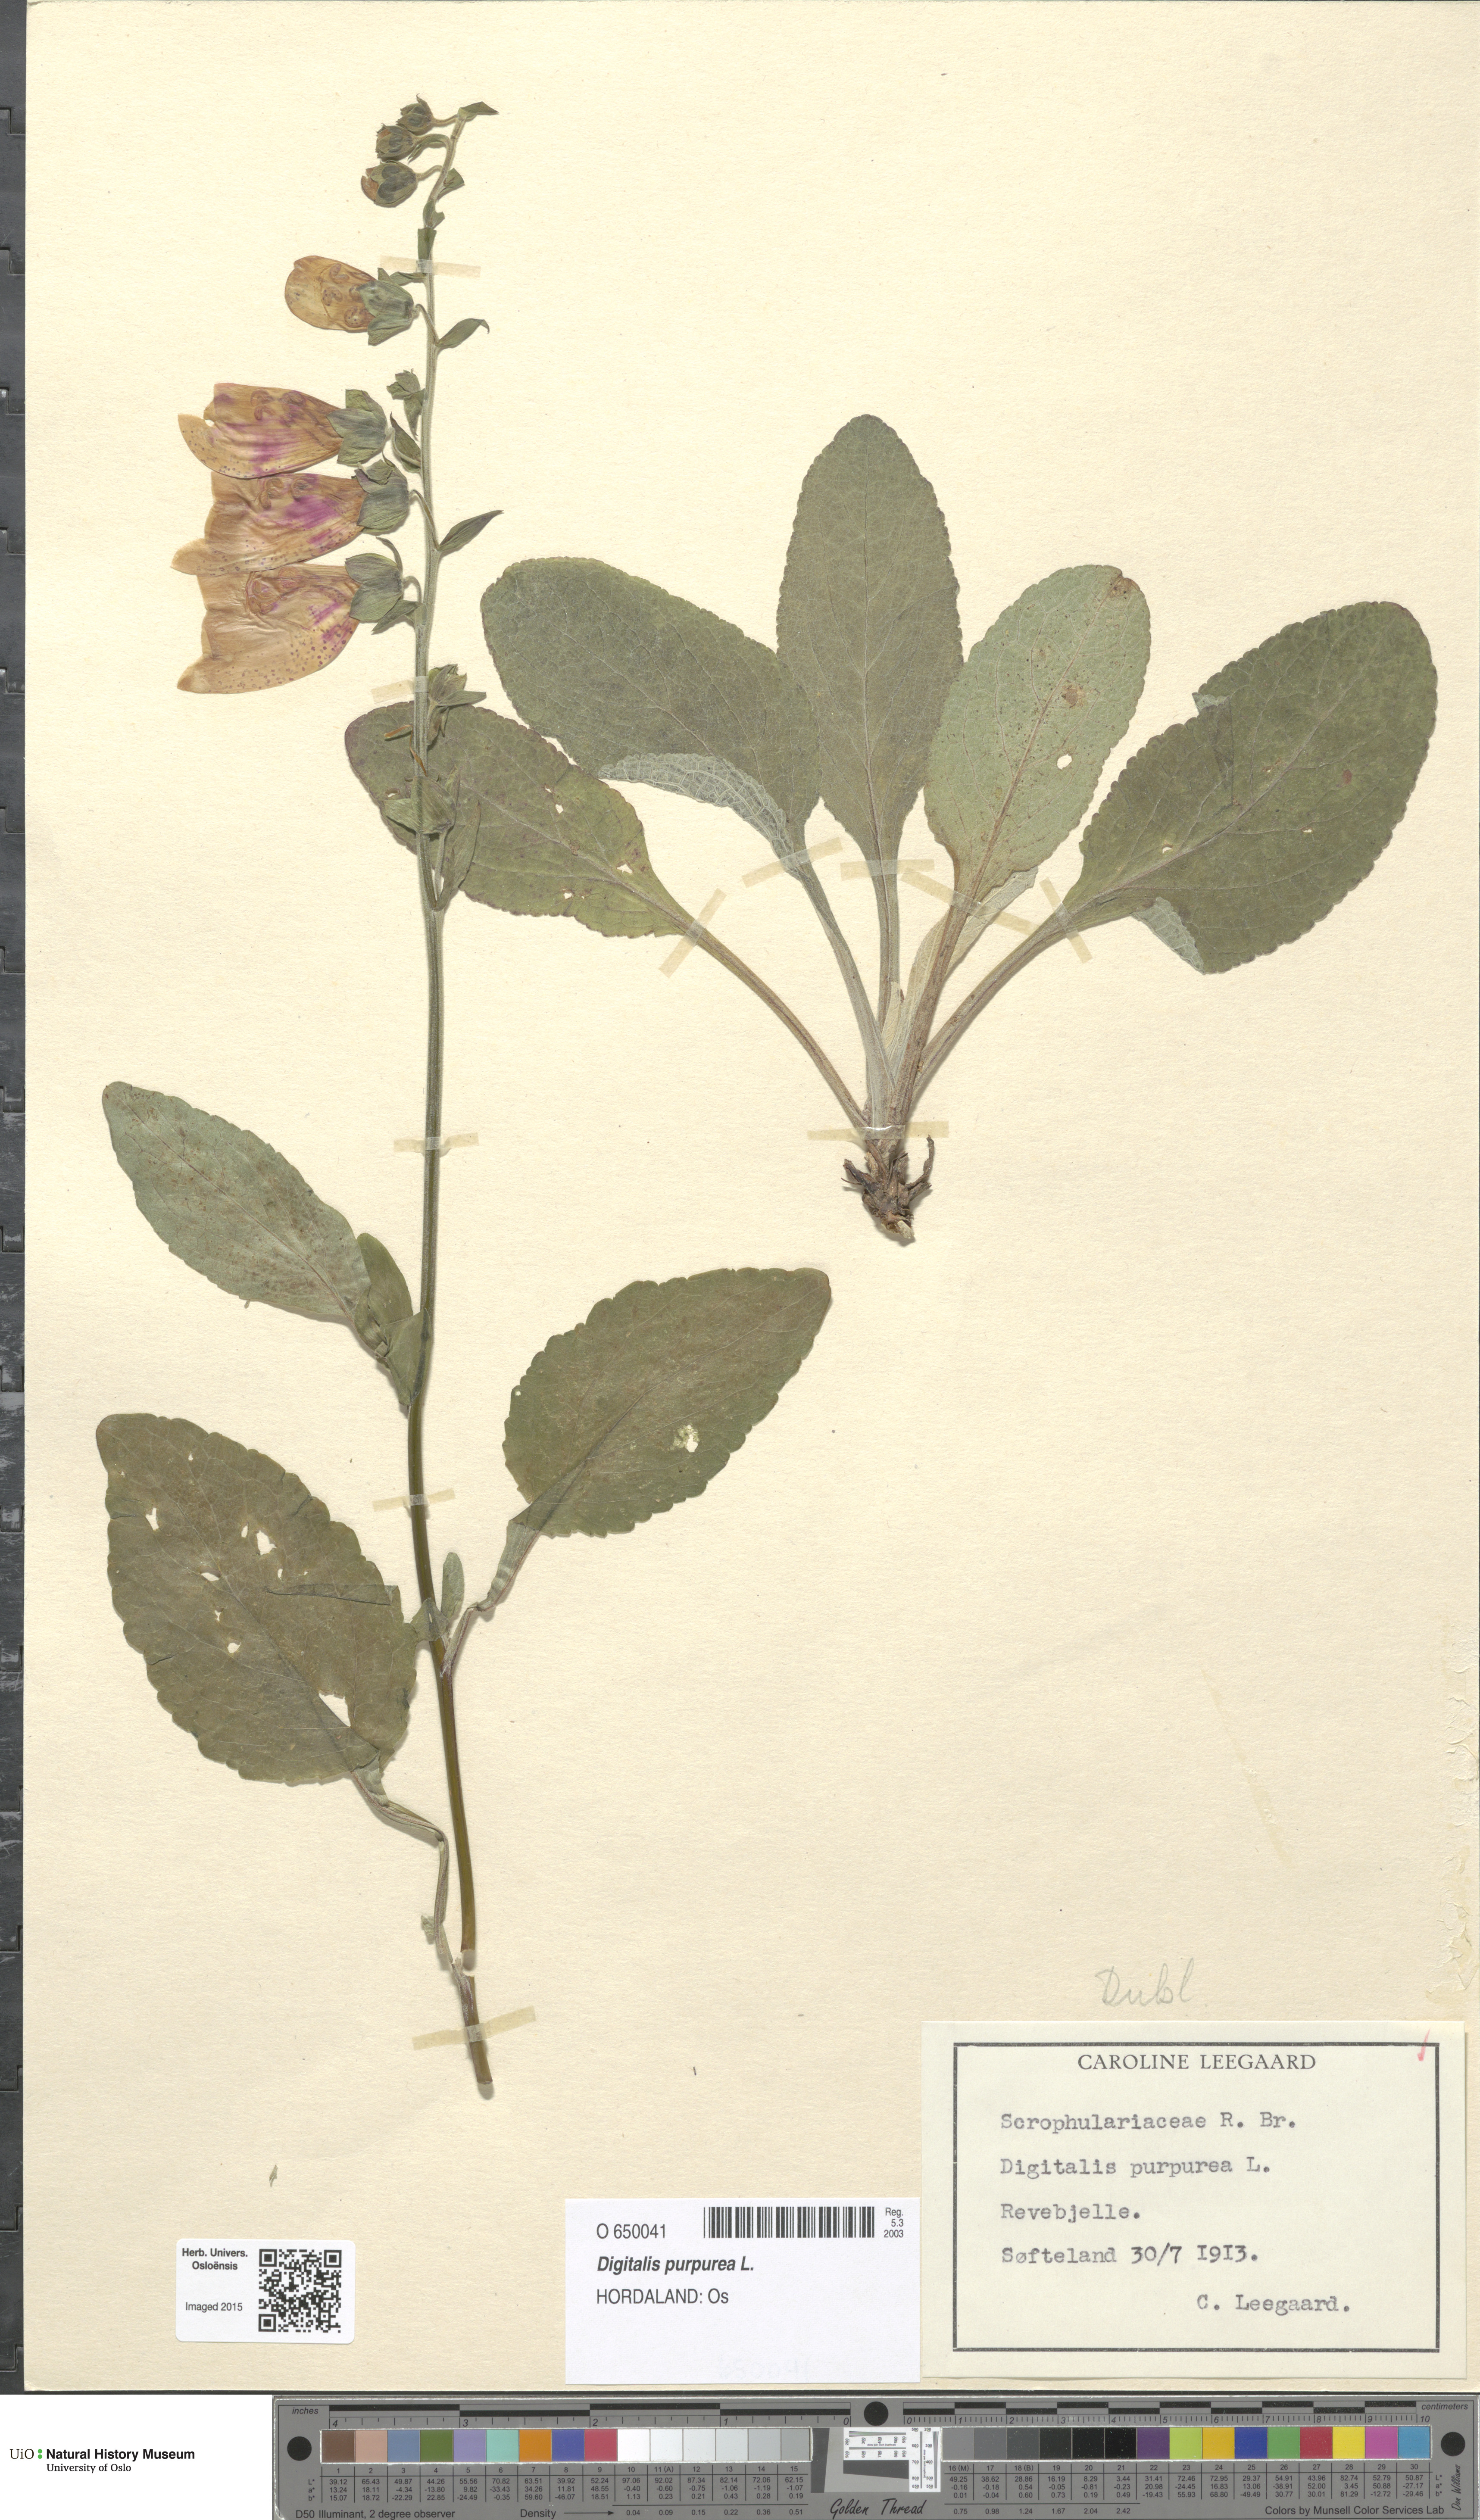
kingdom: Plantae
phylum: Tracheophyta
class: Magnoliopsida
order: Lamiales
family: Plantaginaceae
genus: Digitalis
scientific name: Digitalis purpurea
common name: Foxglove
